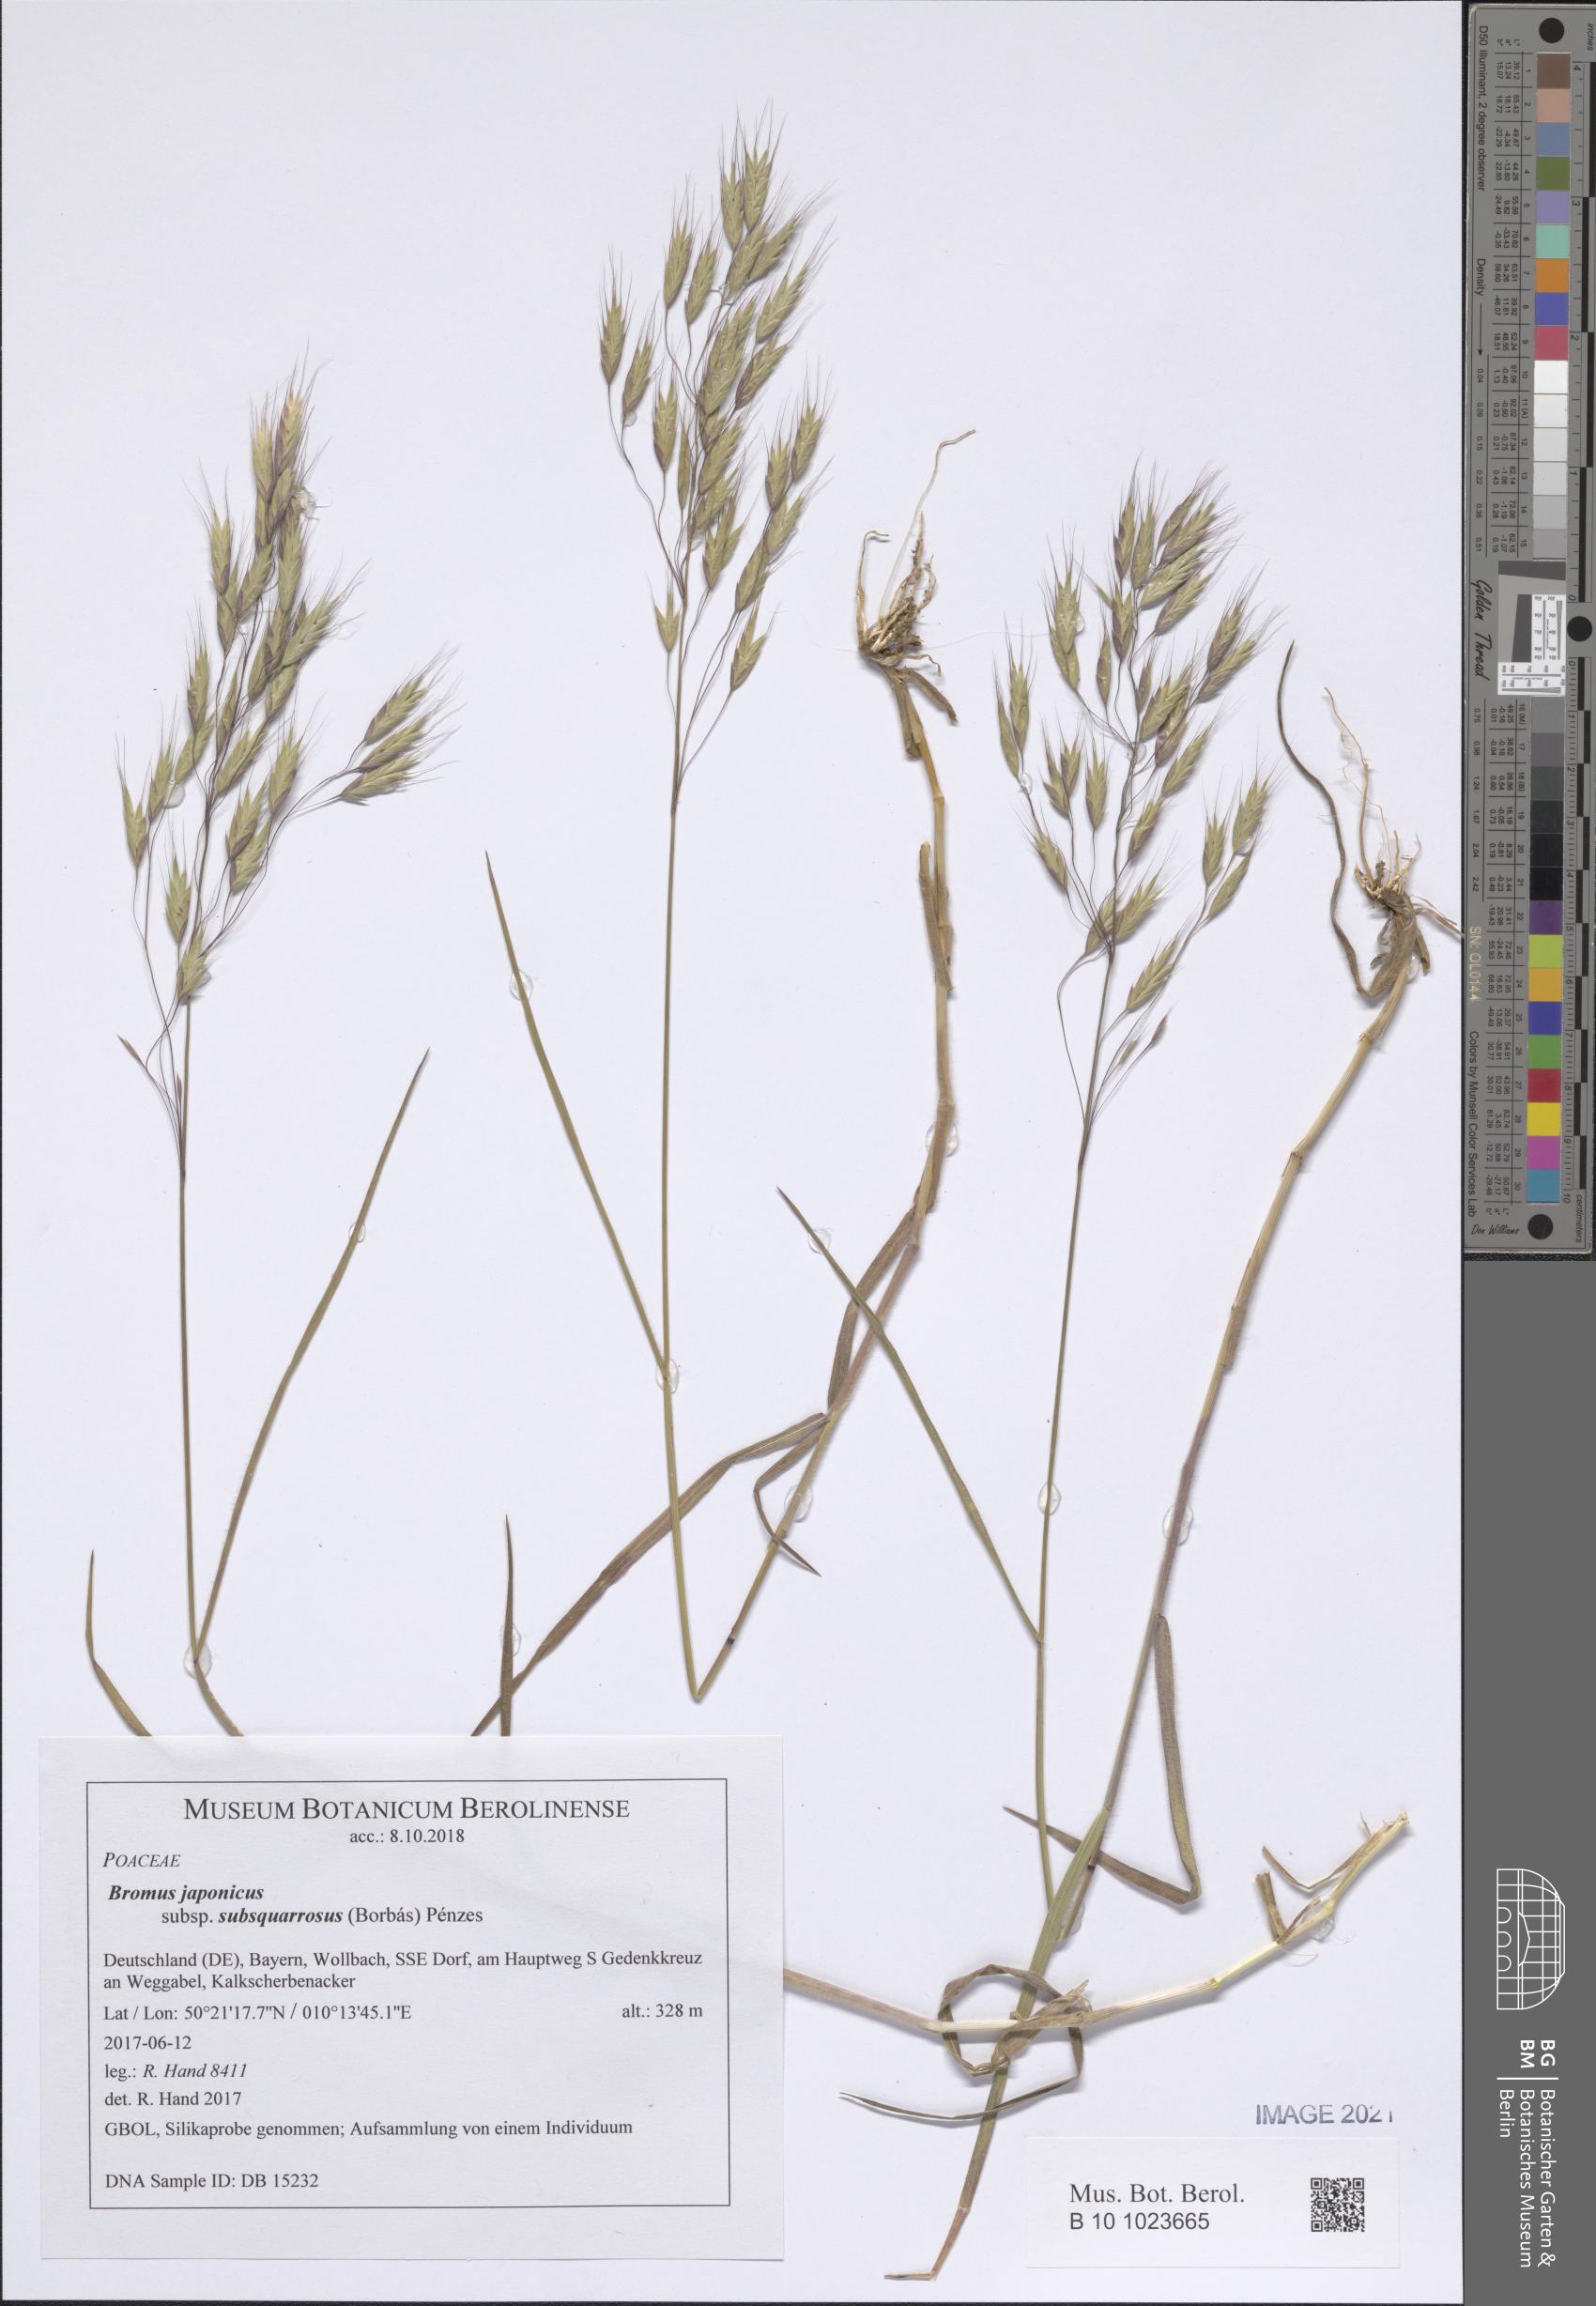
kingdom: Plantae
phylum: Tracheophyta
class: Liliopsida
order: Poales
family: Poaceae
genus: Bromus
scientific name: Bromus japonicus
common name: Japanese brome
